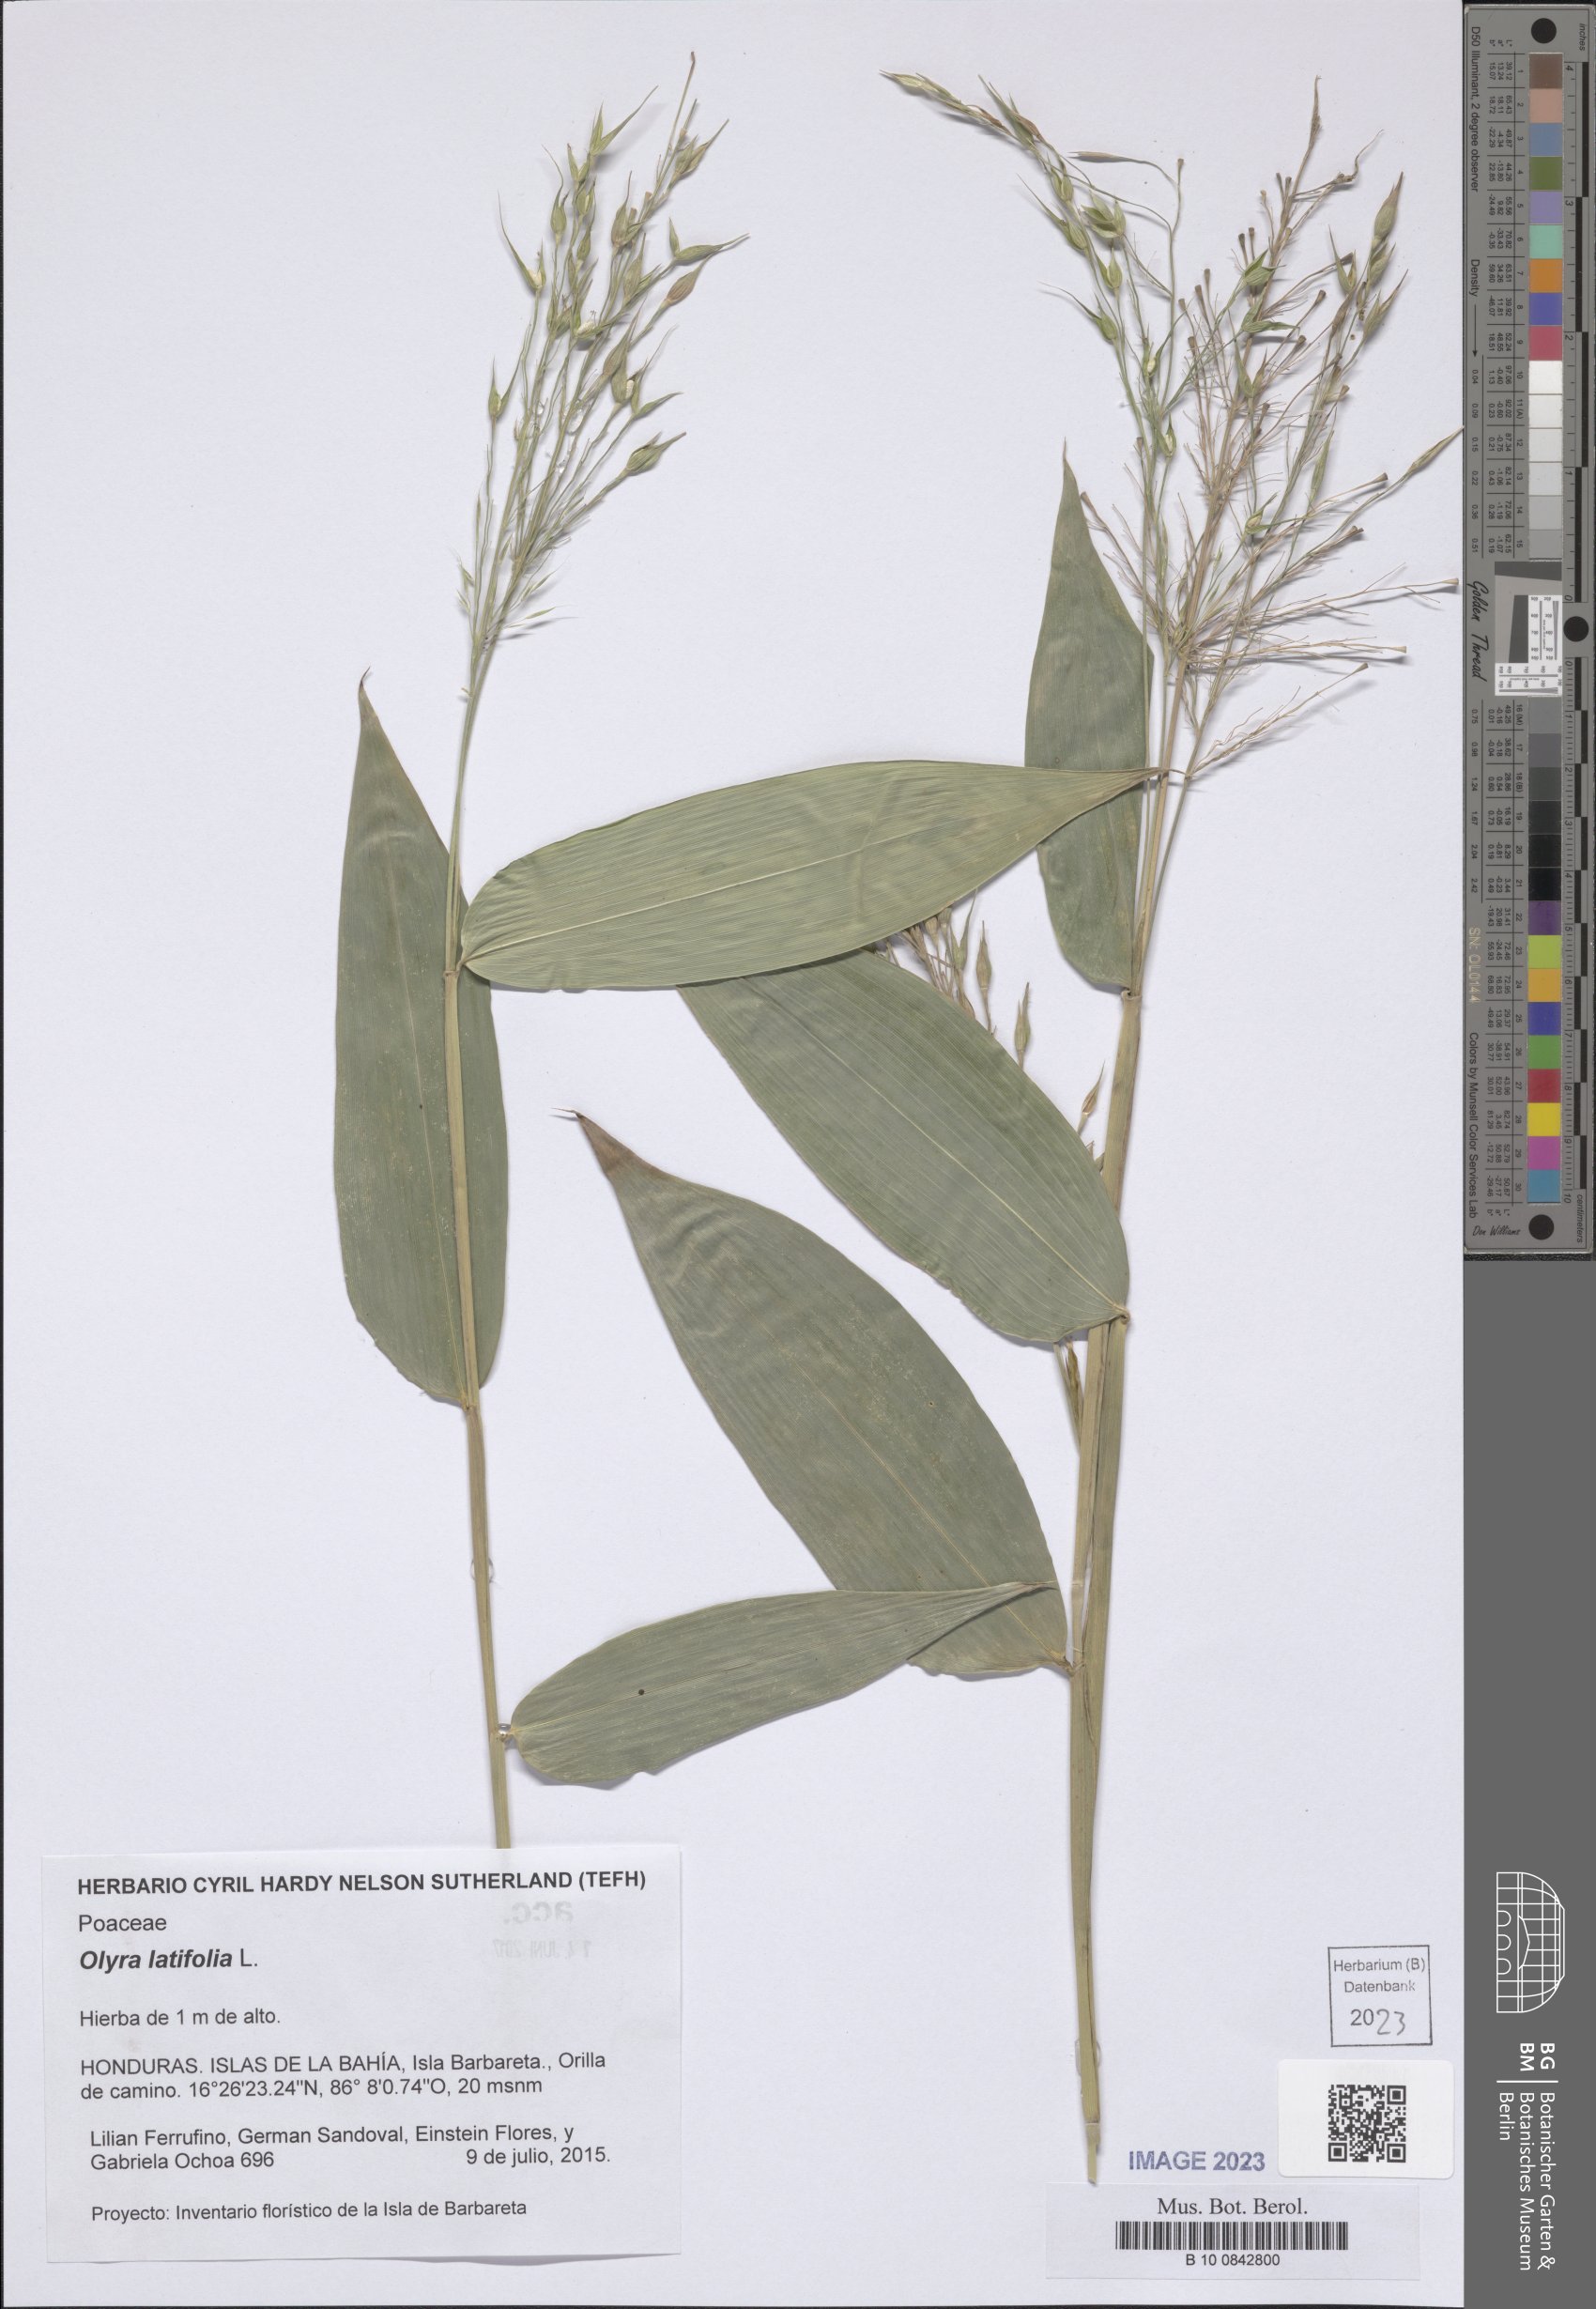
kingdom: Plantae
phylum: Tracheophyta
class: Liliopsida
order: Poales
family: Poaceae
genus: Olyra
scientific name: Olyra latifolia
